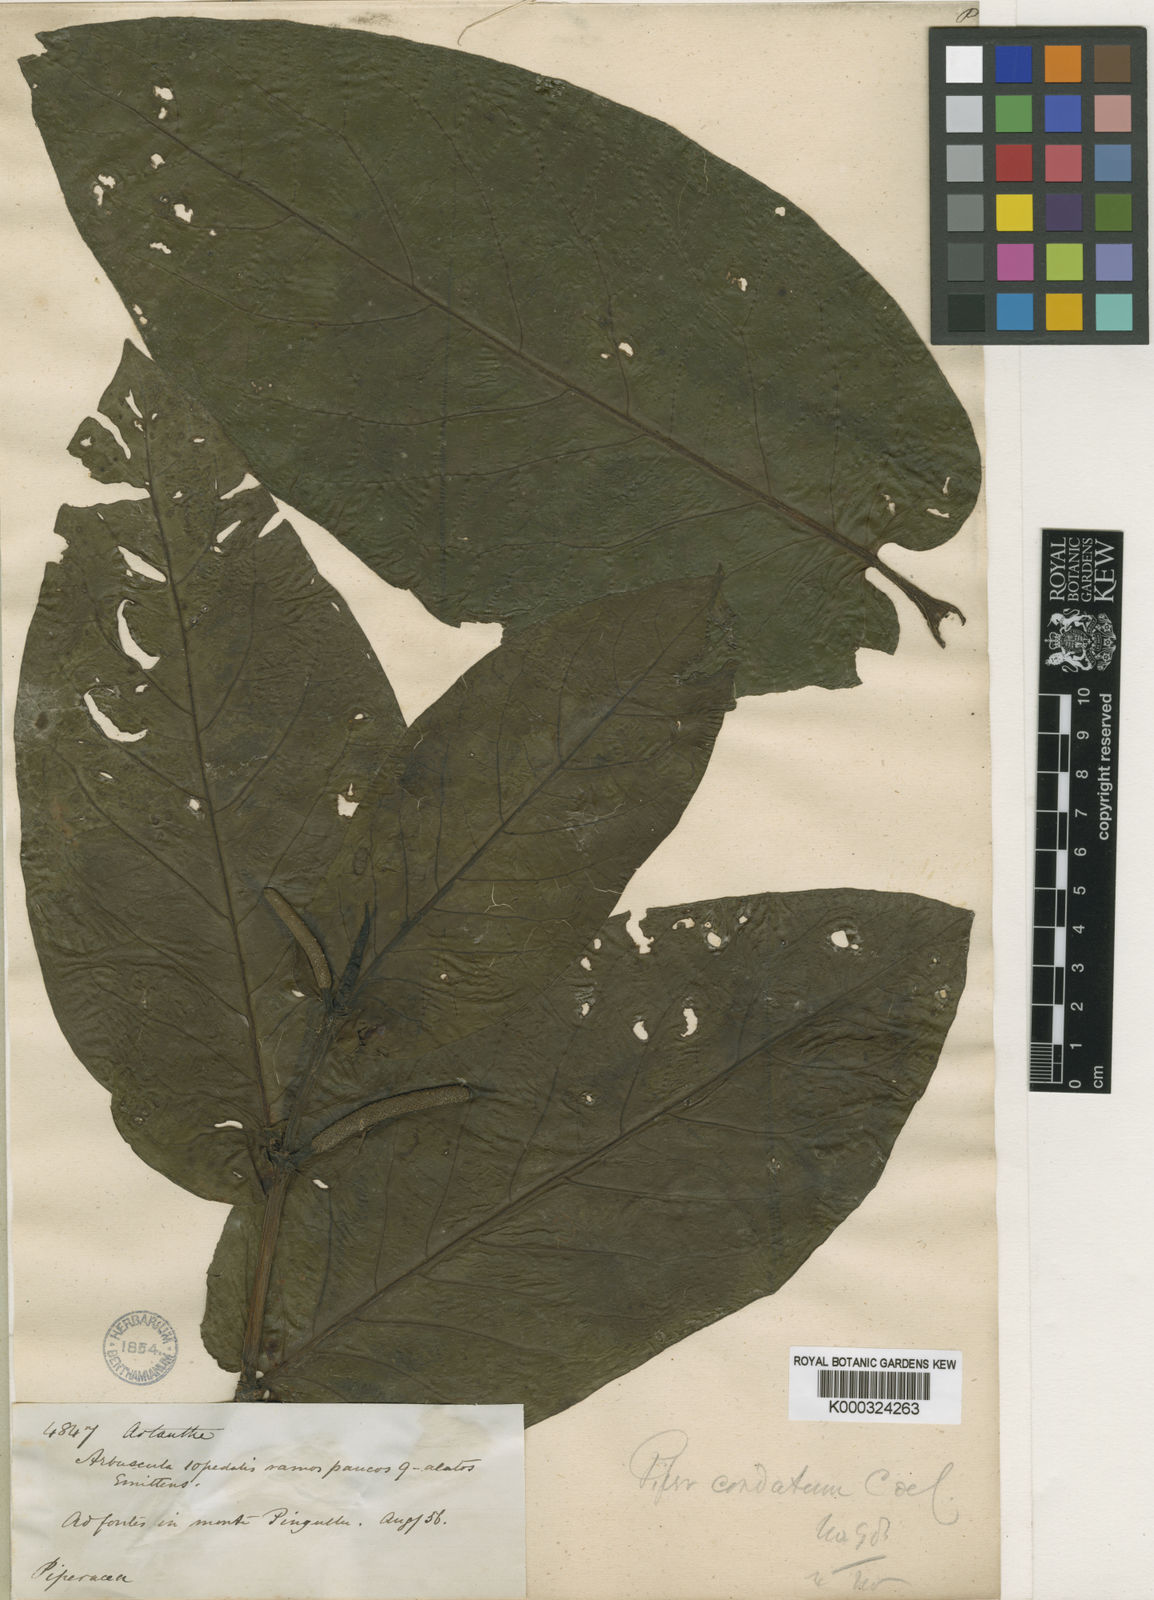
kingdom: Plantae
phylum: Tracheophyta
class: Magnoliopsida
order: Piperales
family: Piperaceae
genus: Piper
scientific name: Piper trinervium
